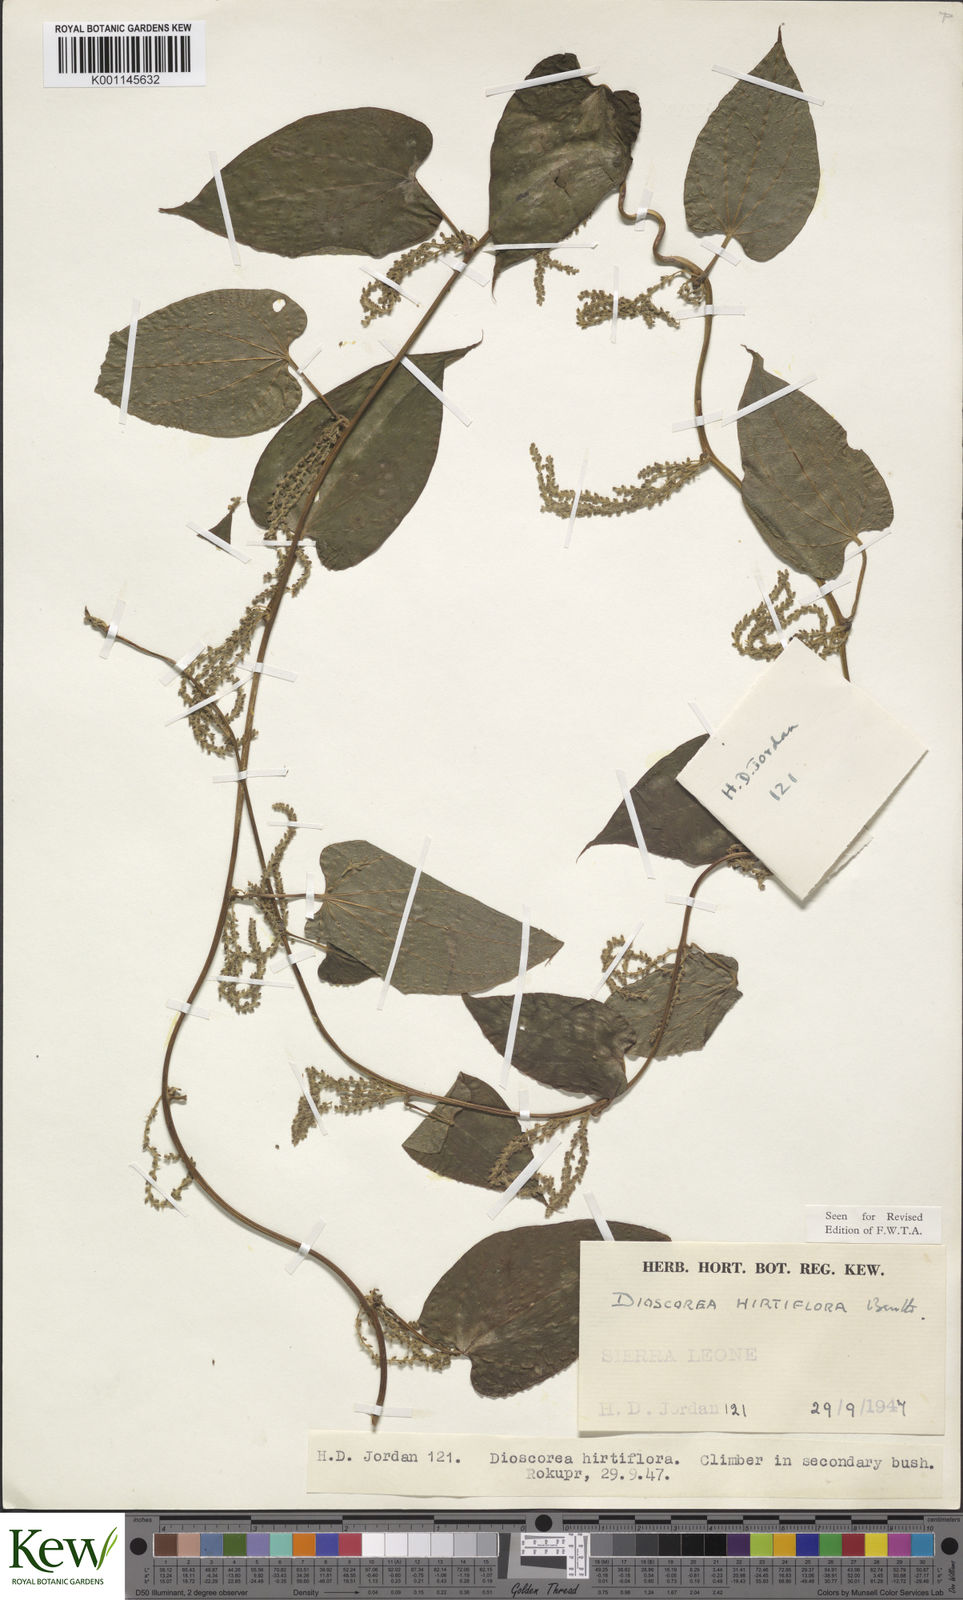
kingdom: Plantae
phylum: Tracheophyta
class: Liliopsida
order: Dioscoreales
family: Dioscoreaceae
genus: Dioscorea
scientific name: Dioscorea hirtiflora
